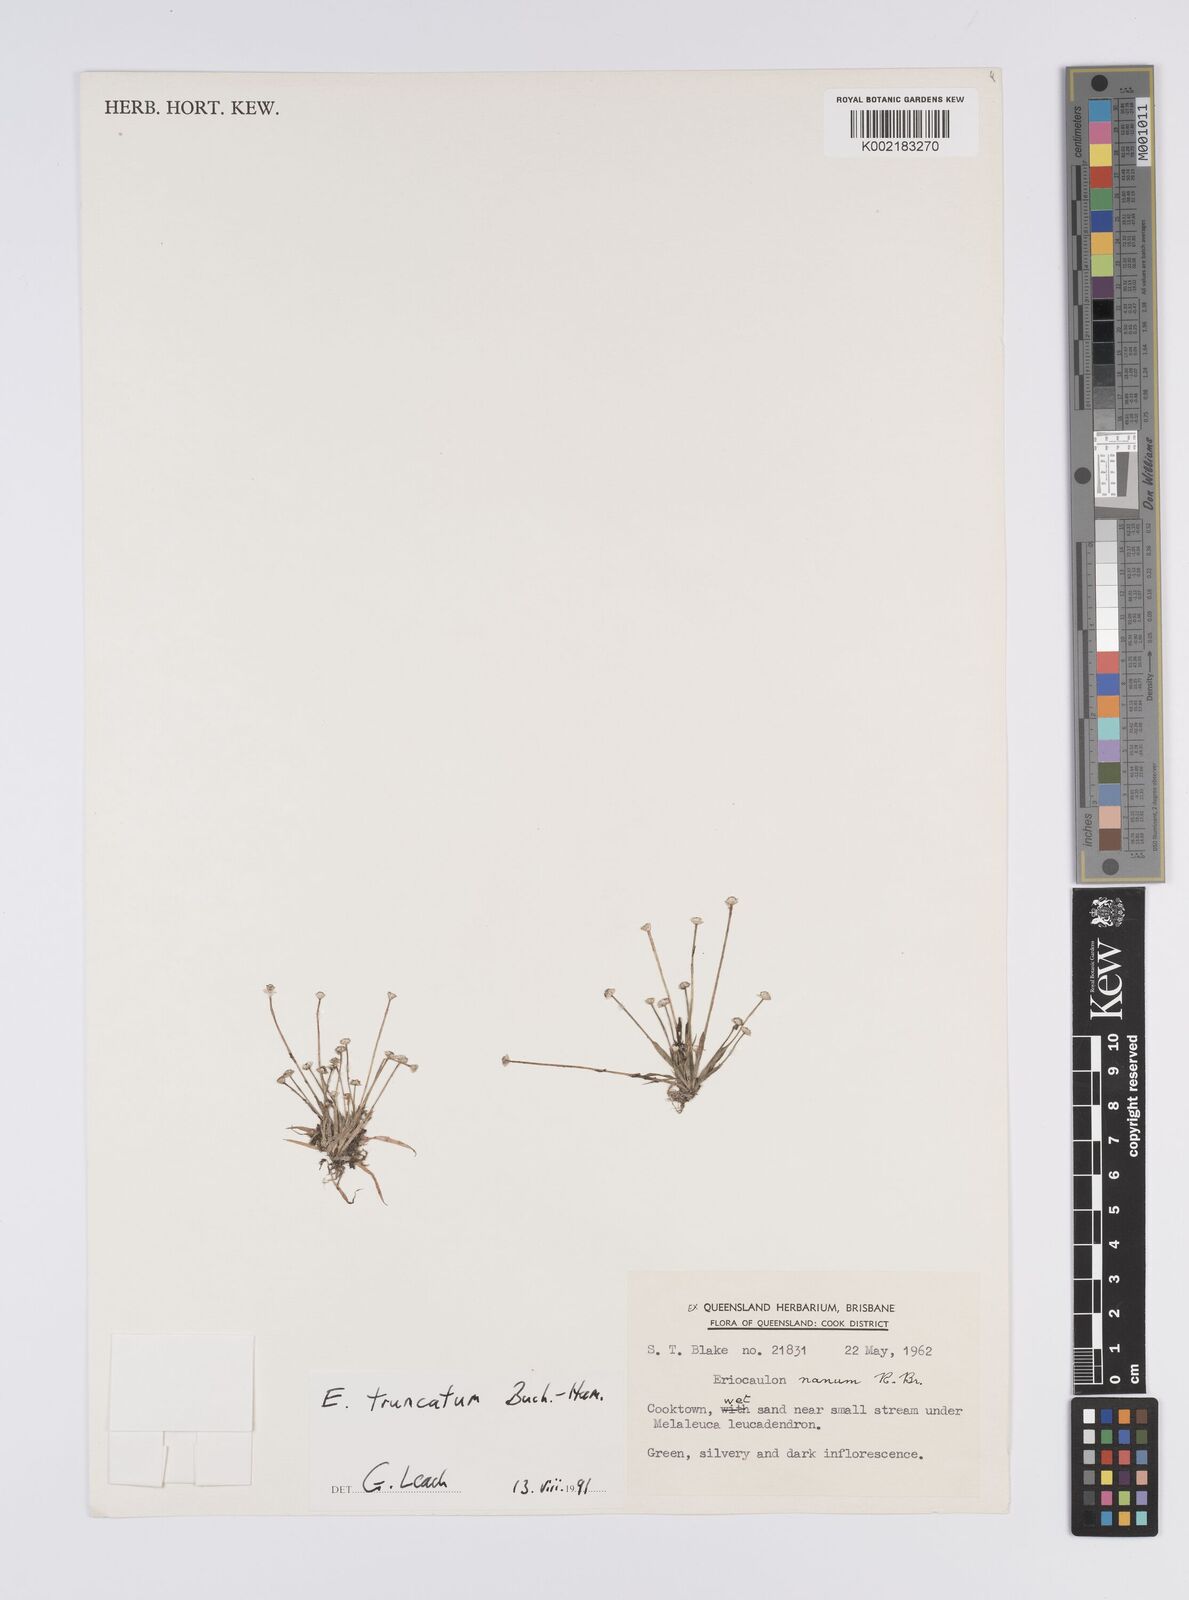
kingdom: Plantae
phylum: Tracheophyta
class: Liliopsida
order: Poales
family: Eriocaulaceae
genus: Eriocaulon
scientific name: Eriocaulon truncatum
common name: Short pipe-wort
